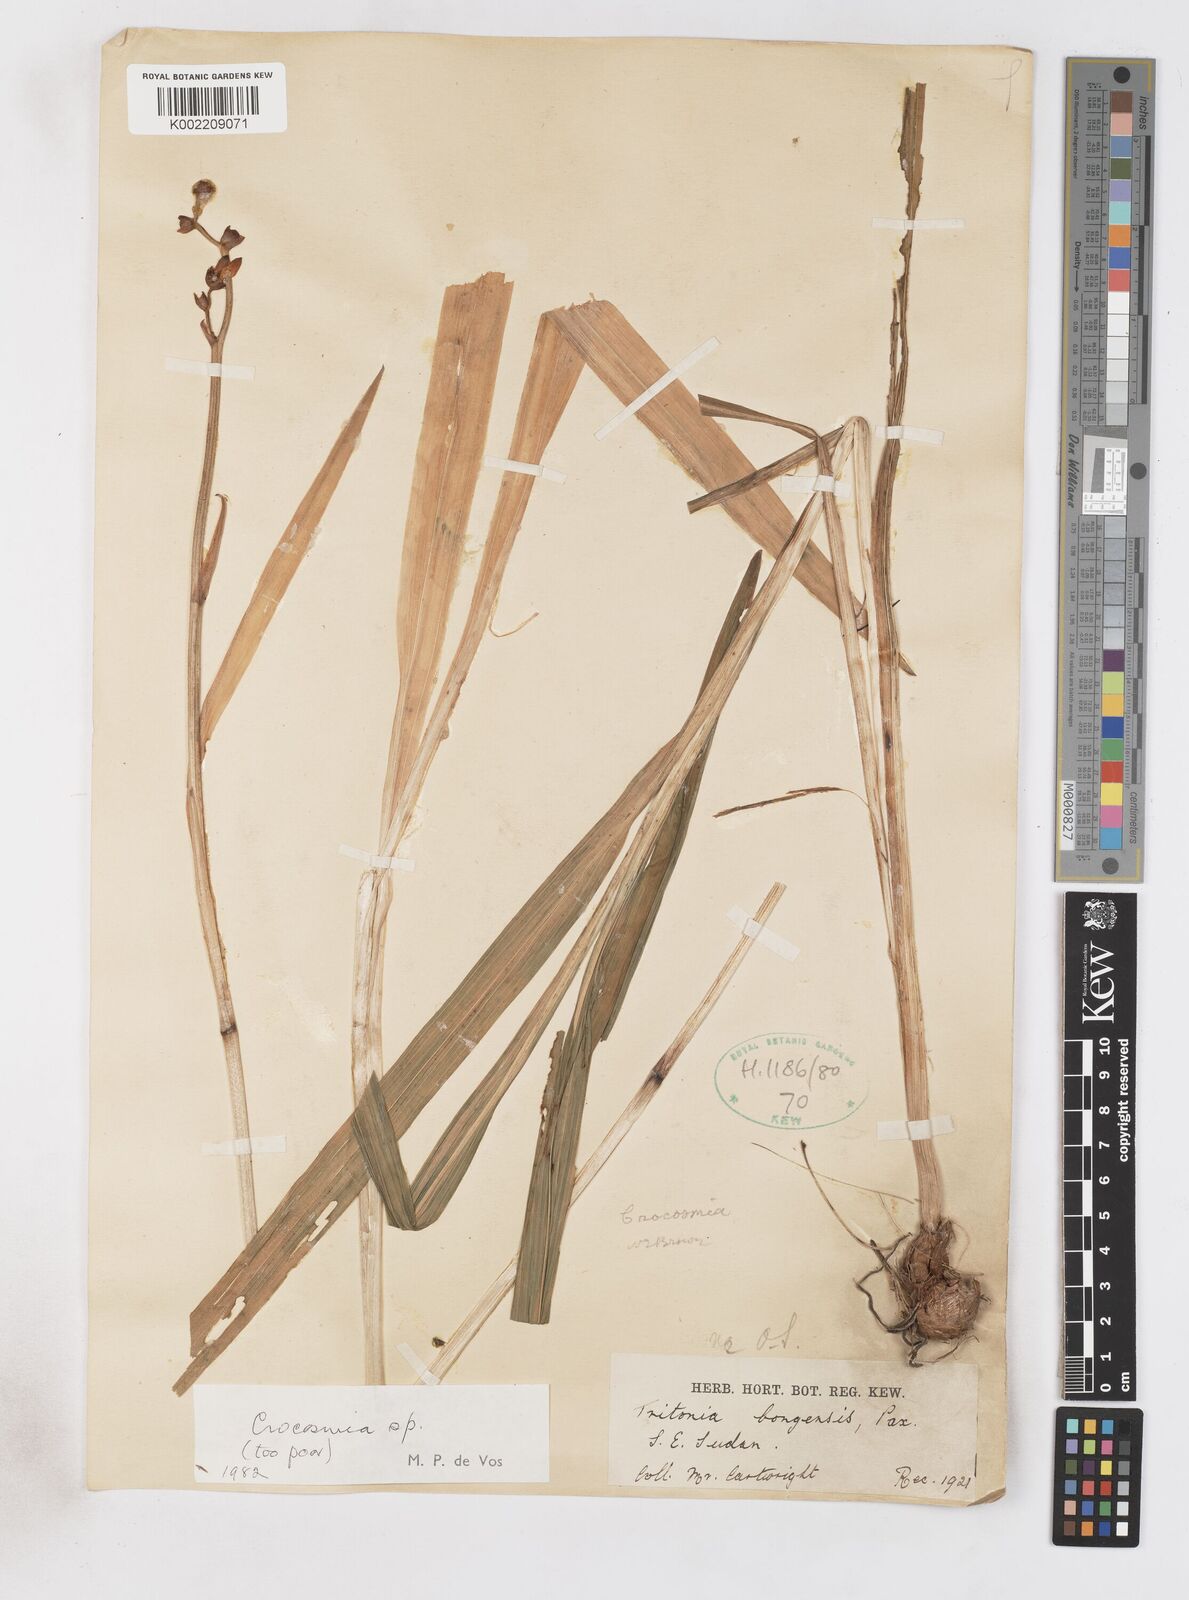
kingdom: Plantae
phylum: Tracheophyta
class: Liliopsida
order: Asparagales
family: Iridaceae
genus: Crocosmia
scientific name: Crocosmia aurea
